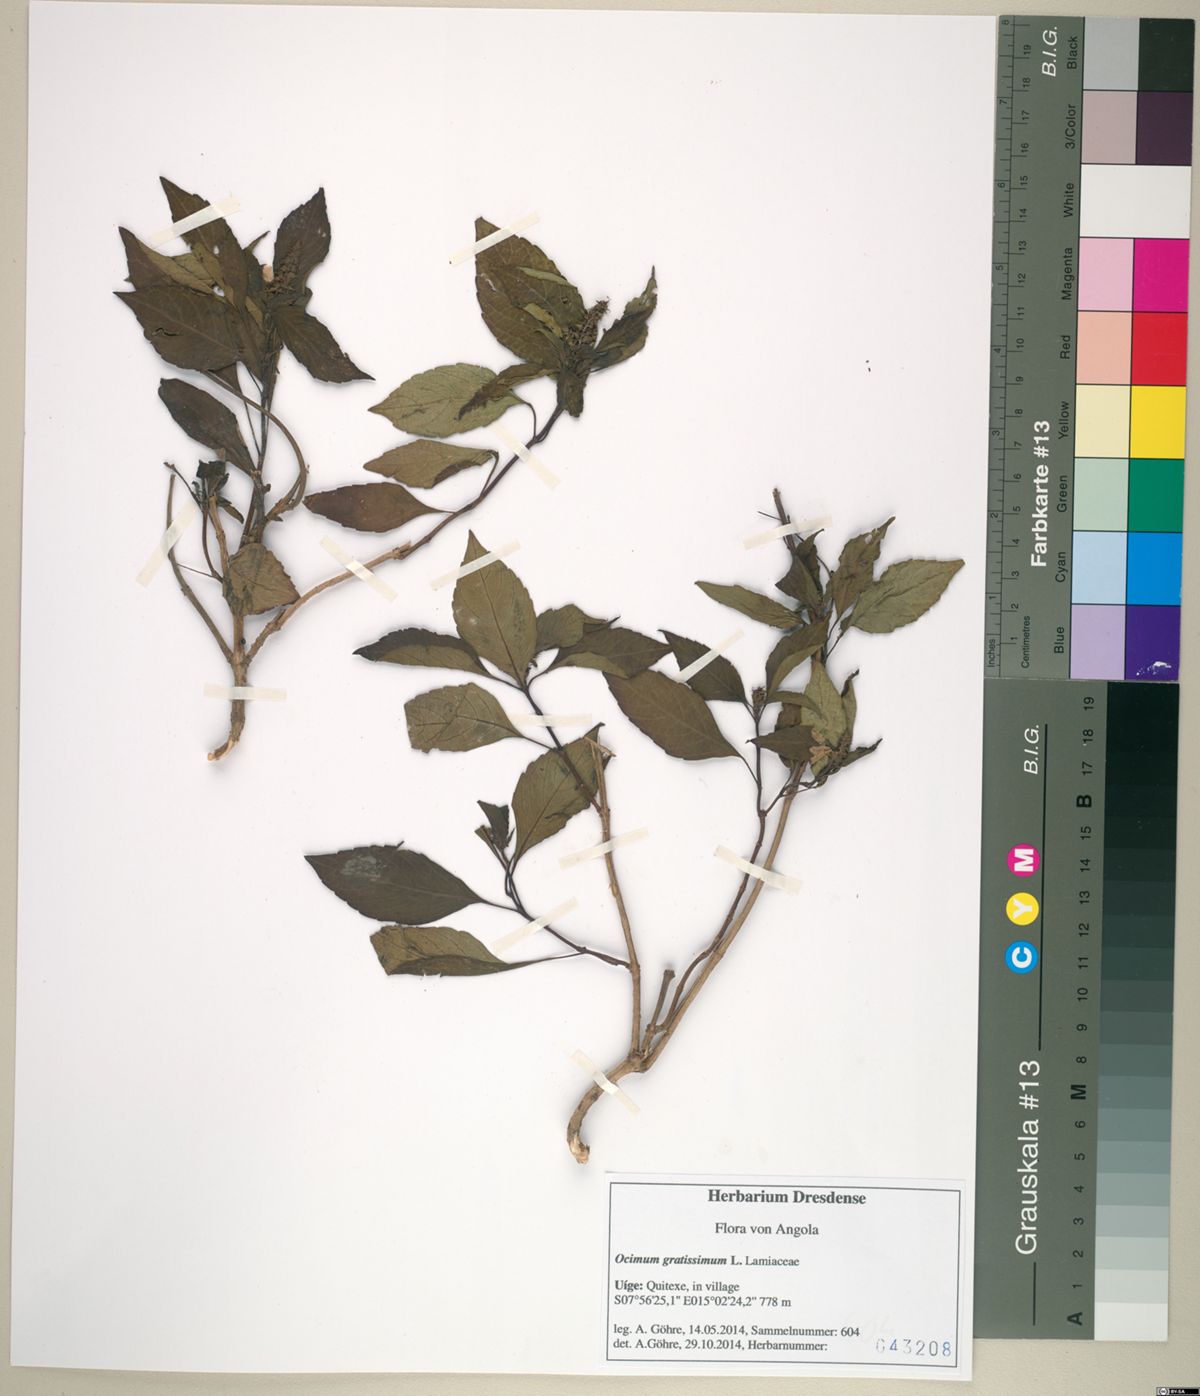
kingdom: Plantae
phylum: Tracheophyta
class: Magnoliopsida
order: Lamiales
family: Lamiaceae
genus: Ocimum
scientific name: Ocimum gratissimum
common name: African basil
